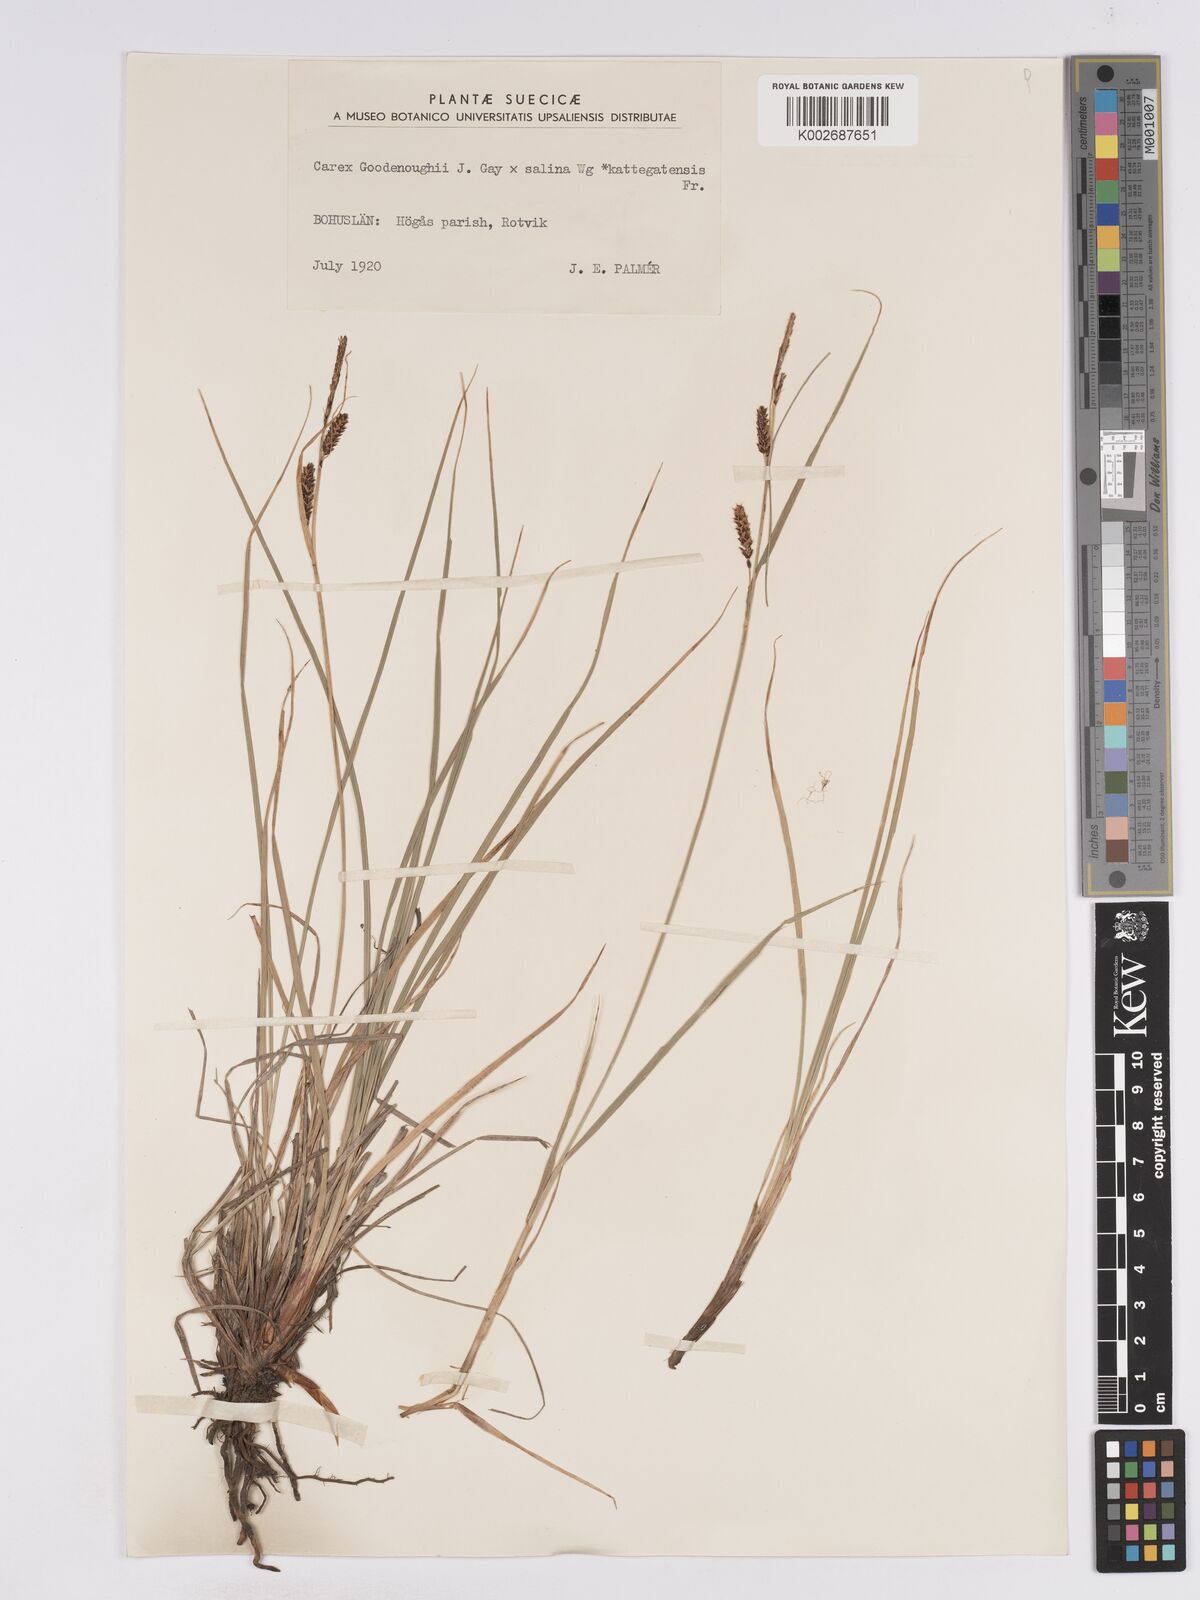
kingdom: Plantae
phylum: Tracheophyta
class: Liliopsida
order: Poales
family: Cyperaceae
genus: Carex
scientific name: Carex
